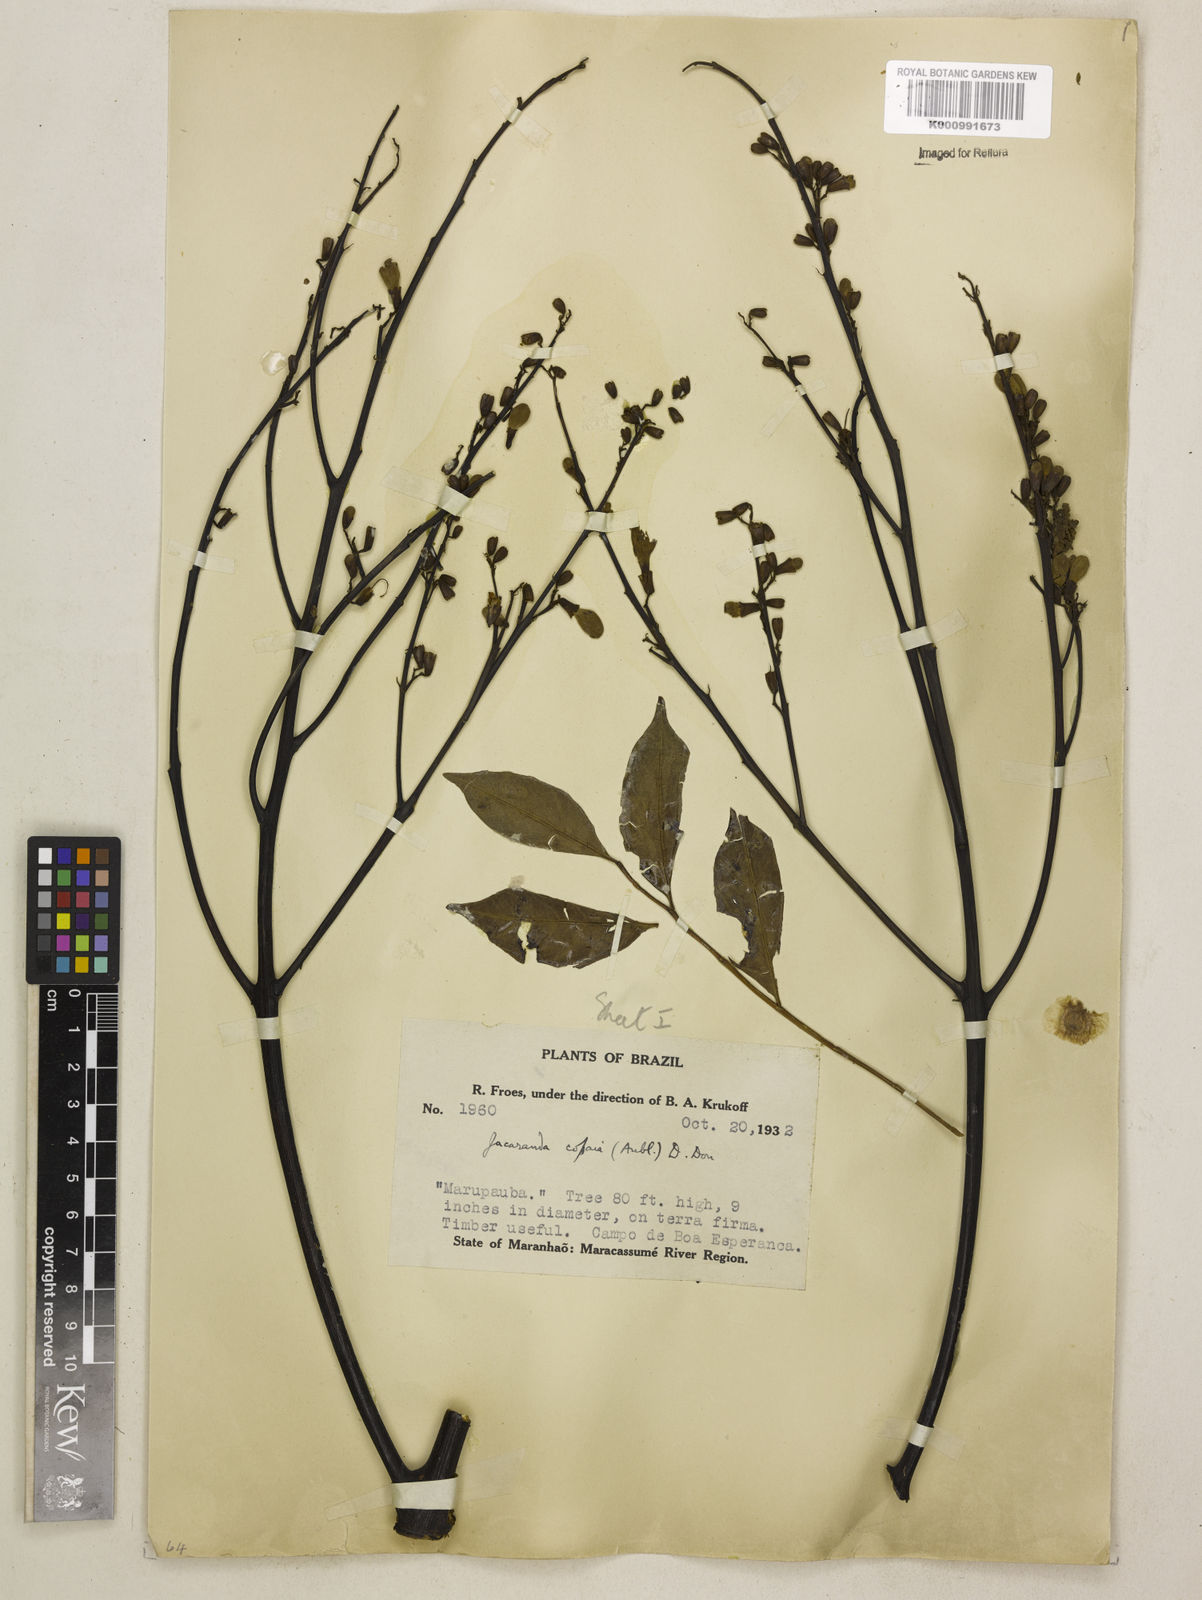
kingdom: Plantae
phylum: Tracheophyta
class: Magnoliopsida
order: Lamiales
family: Bignoniaceae
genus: Jacaranda
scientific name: Jacaranda copaia
